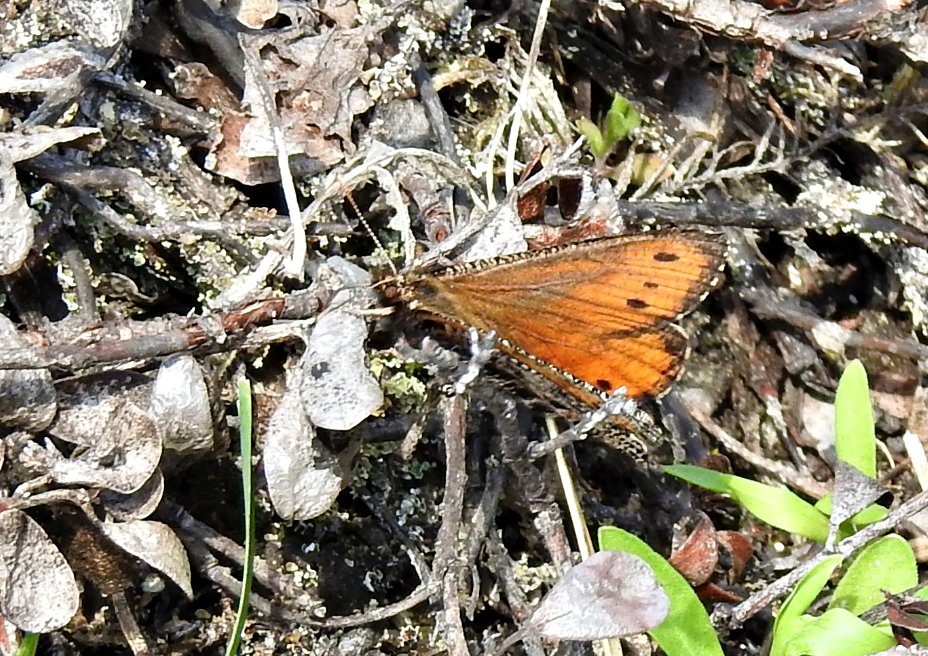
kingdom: Animalia
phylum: Arthropoda
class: Insecta
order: Lepidoptera
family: Nymphalidae
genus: Oeneis
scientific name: Oeneis chryxus
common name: Chryxus Arctic
